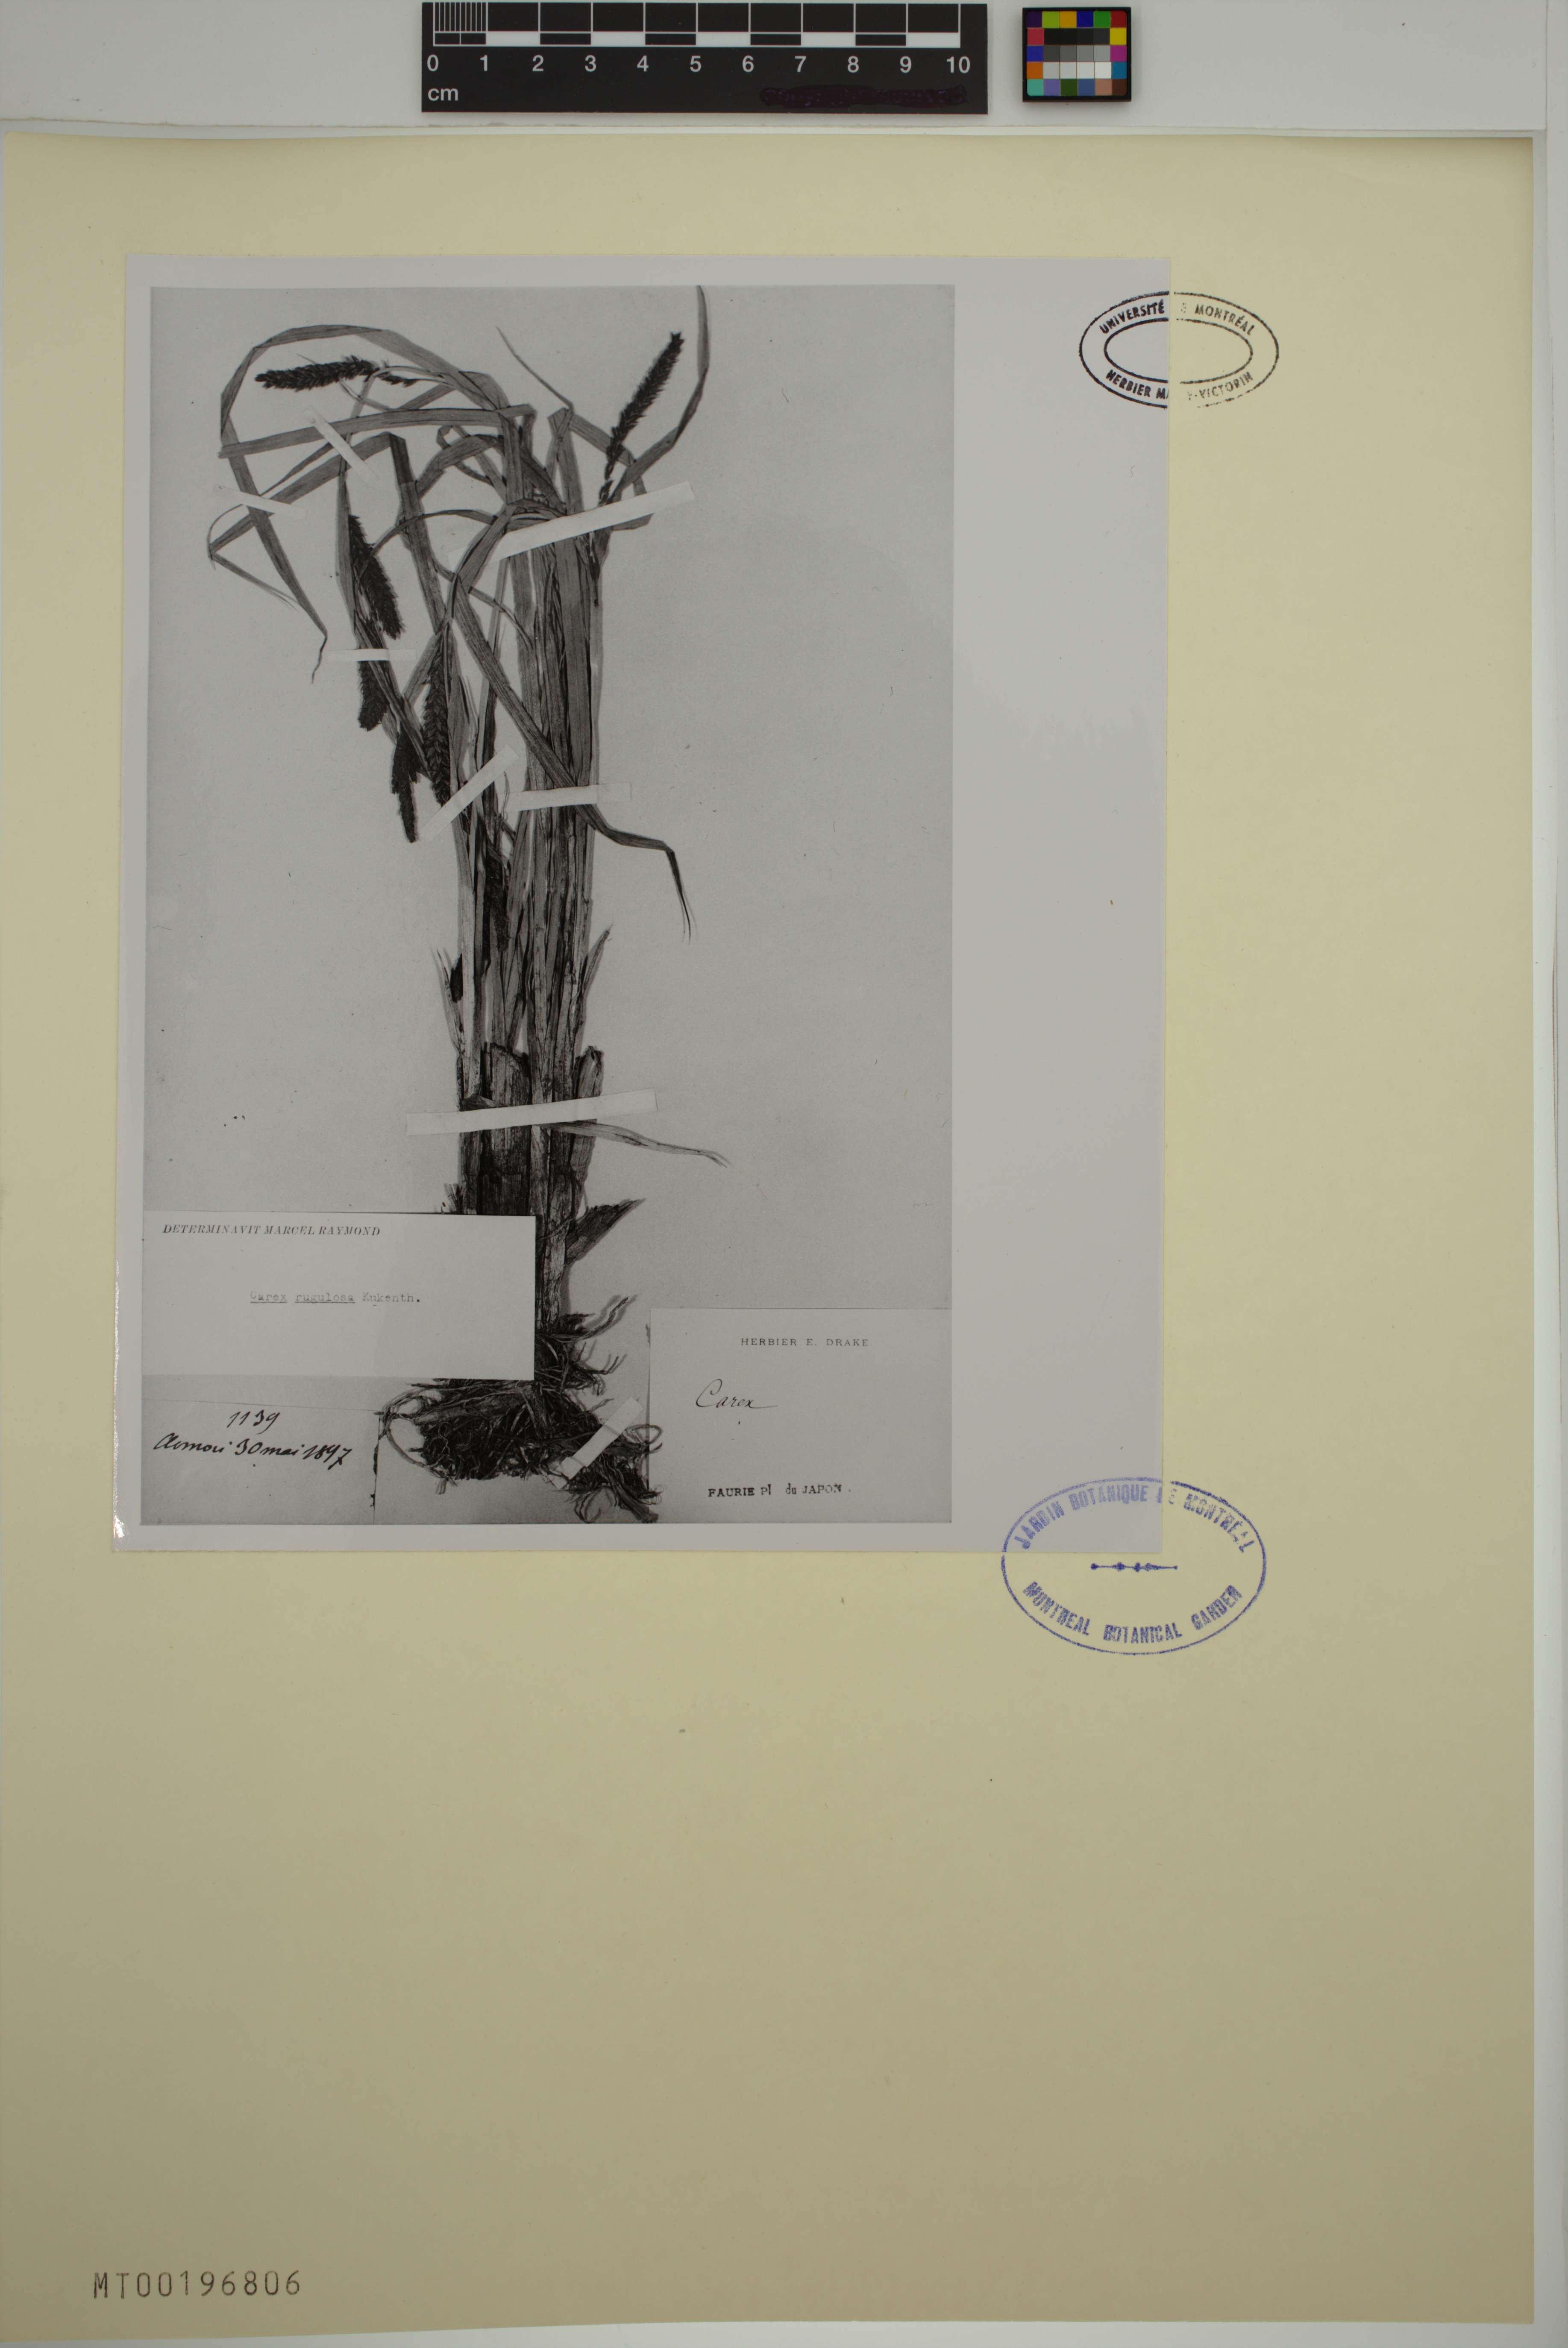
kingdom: Plantae
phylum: Tracheophyta
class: Liliopsida
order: Poales
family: Cyperaceae
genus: Carex
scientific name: Carex rugulosa
